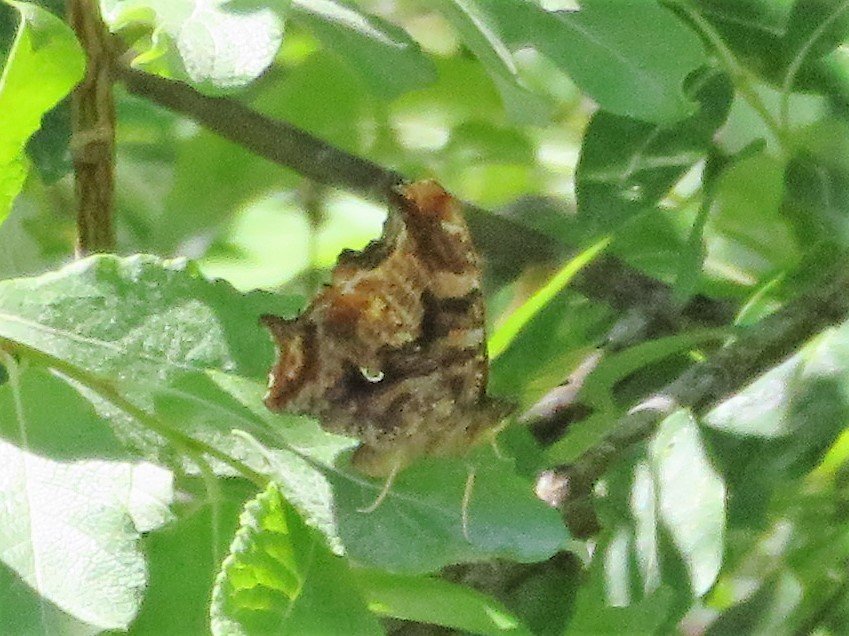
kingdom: Animalia
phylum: Arthropoda
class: Insecta
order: Lepidoptera
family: Nymphalidae
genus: Polygonia
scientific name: Polygonia comma
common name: Eastern Comma
